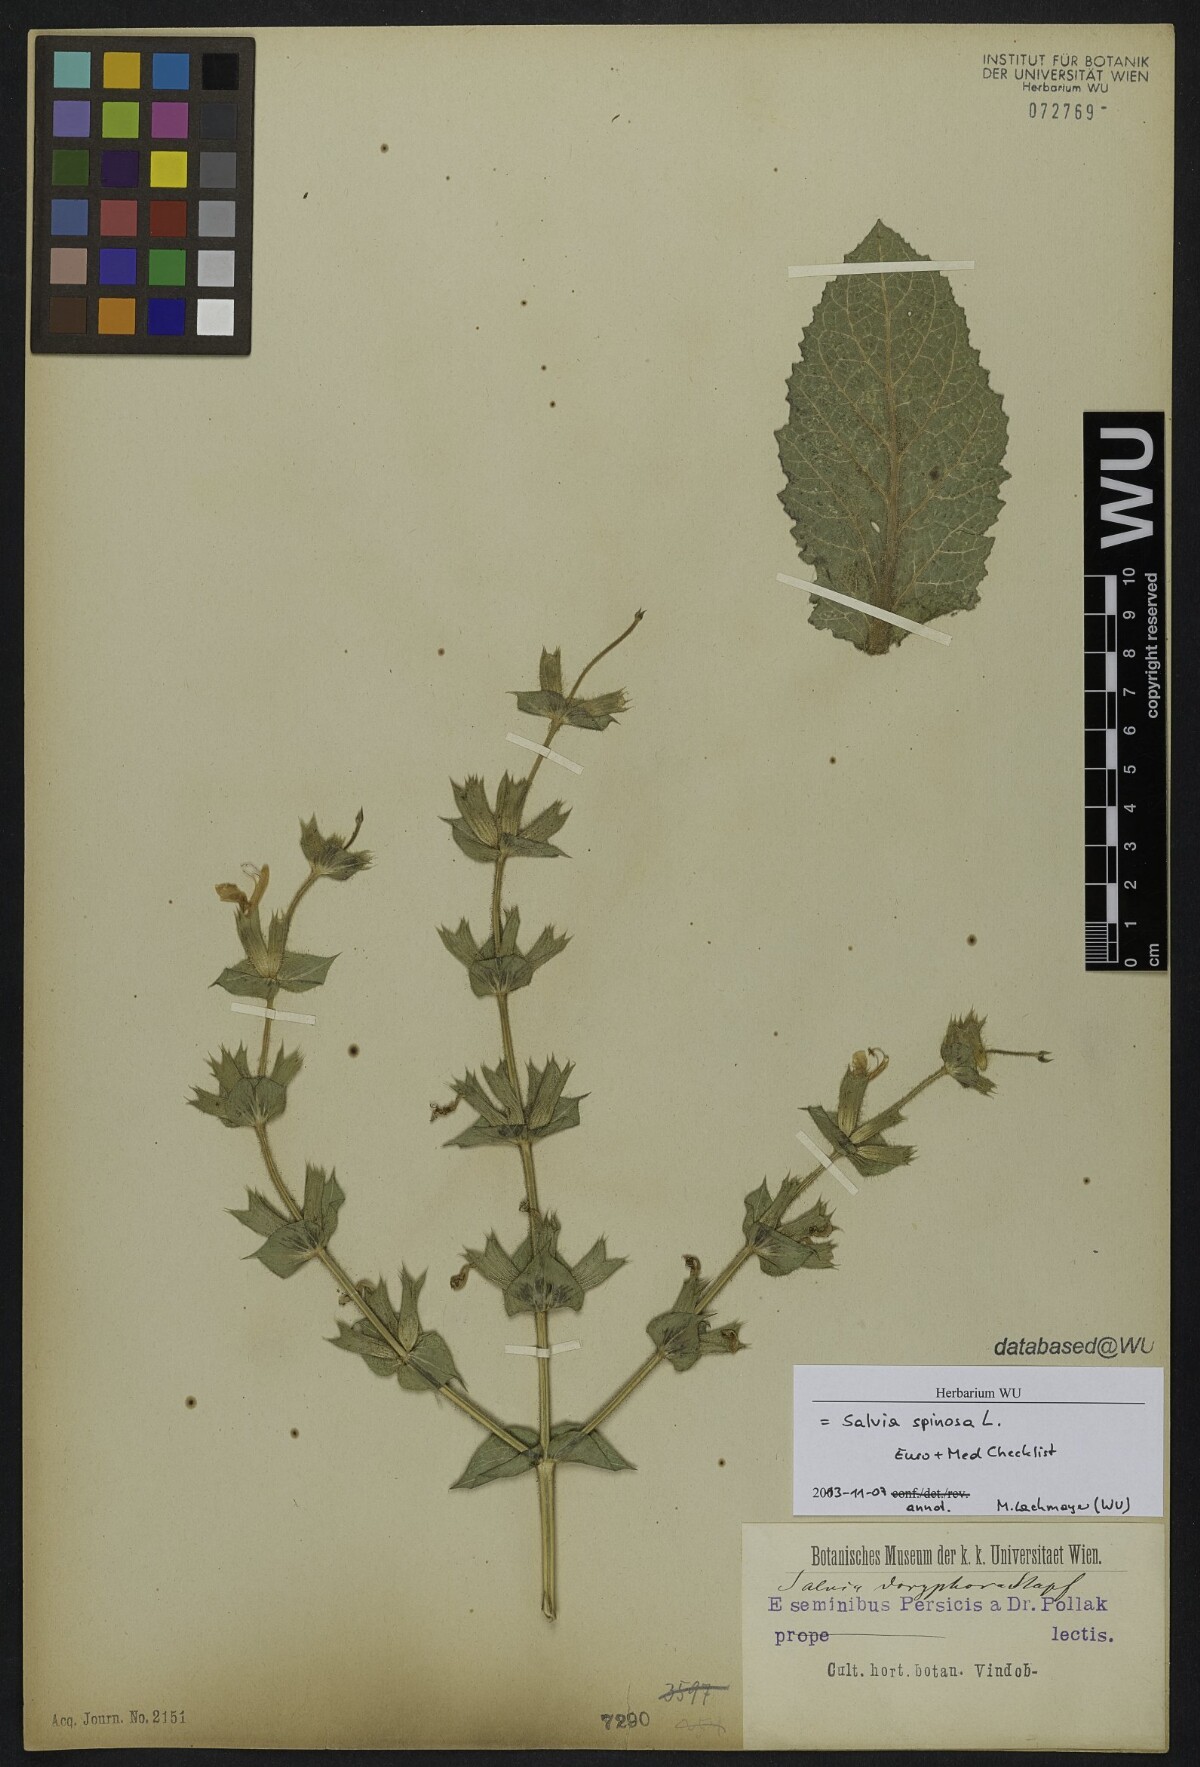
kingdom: Plantae
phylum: Tracheophyta
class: Magnoliopsida
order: Lamiales
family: Lamiaceae
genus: Salvia
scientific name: Salvia spinosa
